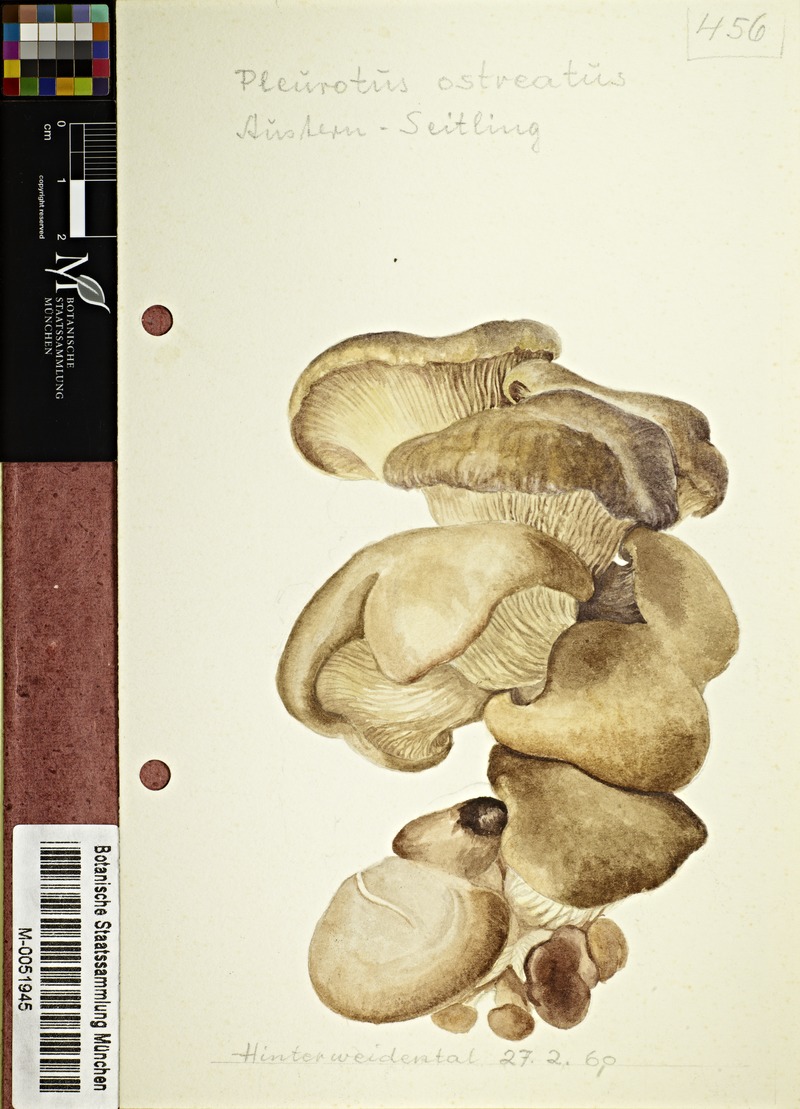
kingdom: Fungi
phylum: Basidiomycota
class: Agaricomycetes
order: Agaricales
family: Pleurotaceae
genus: Pleurotus
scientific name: Pleurotus ostreatus
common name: Oyster mushroom
